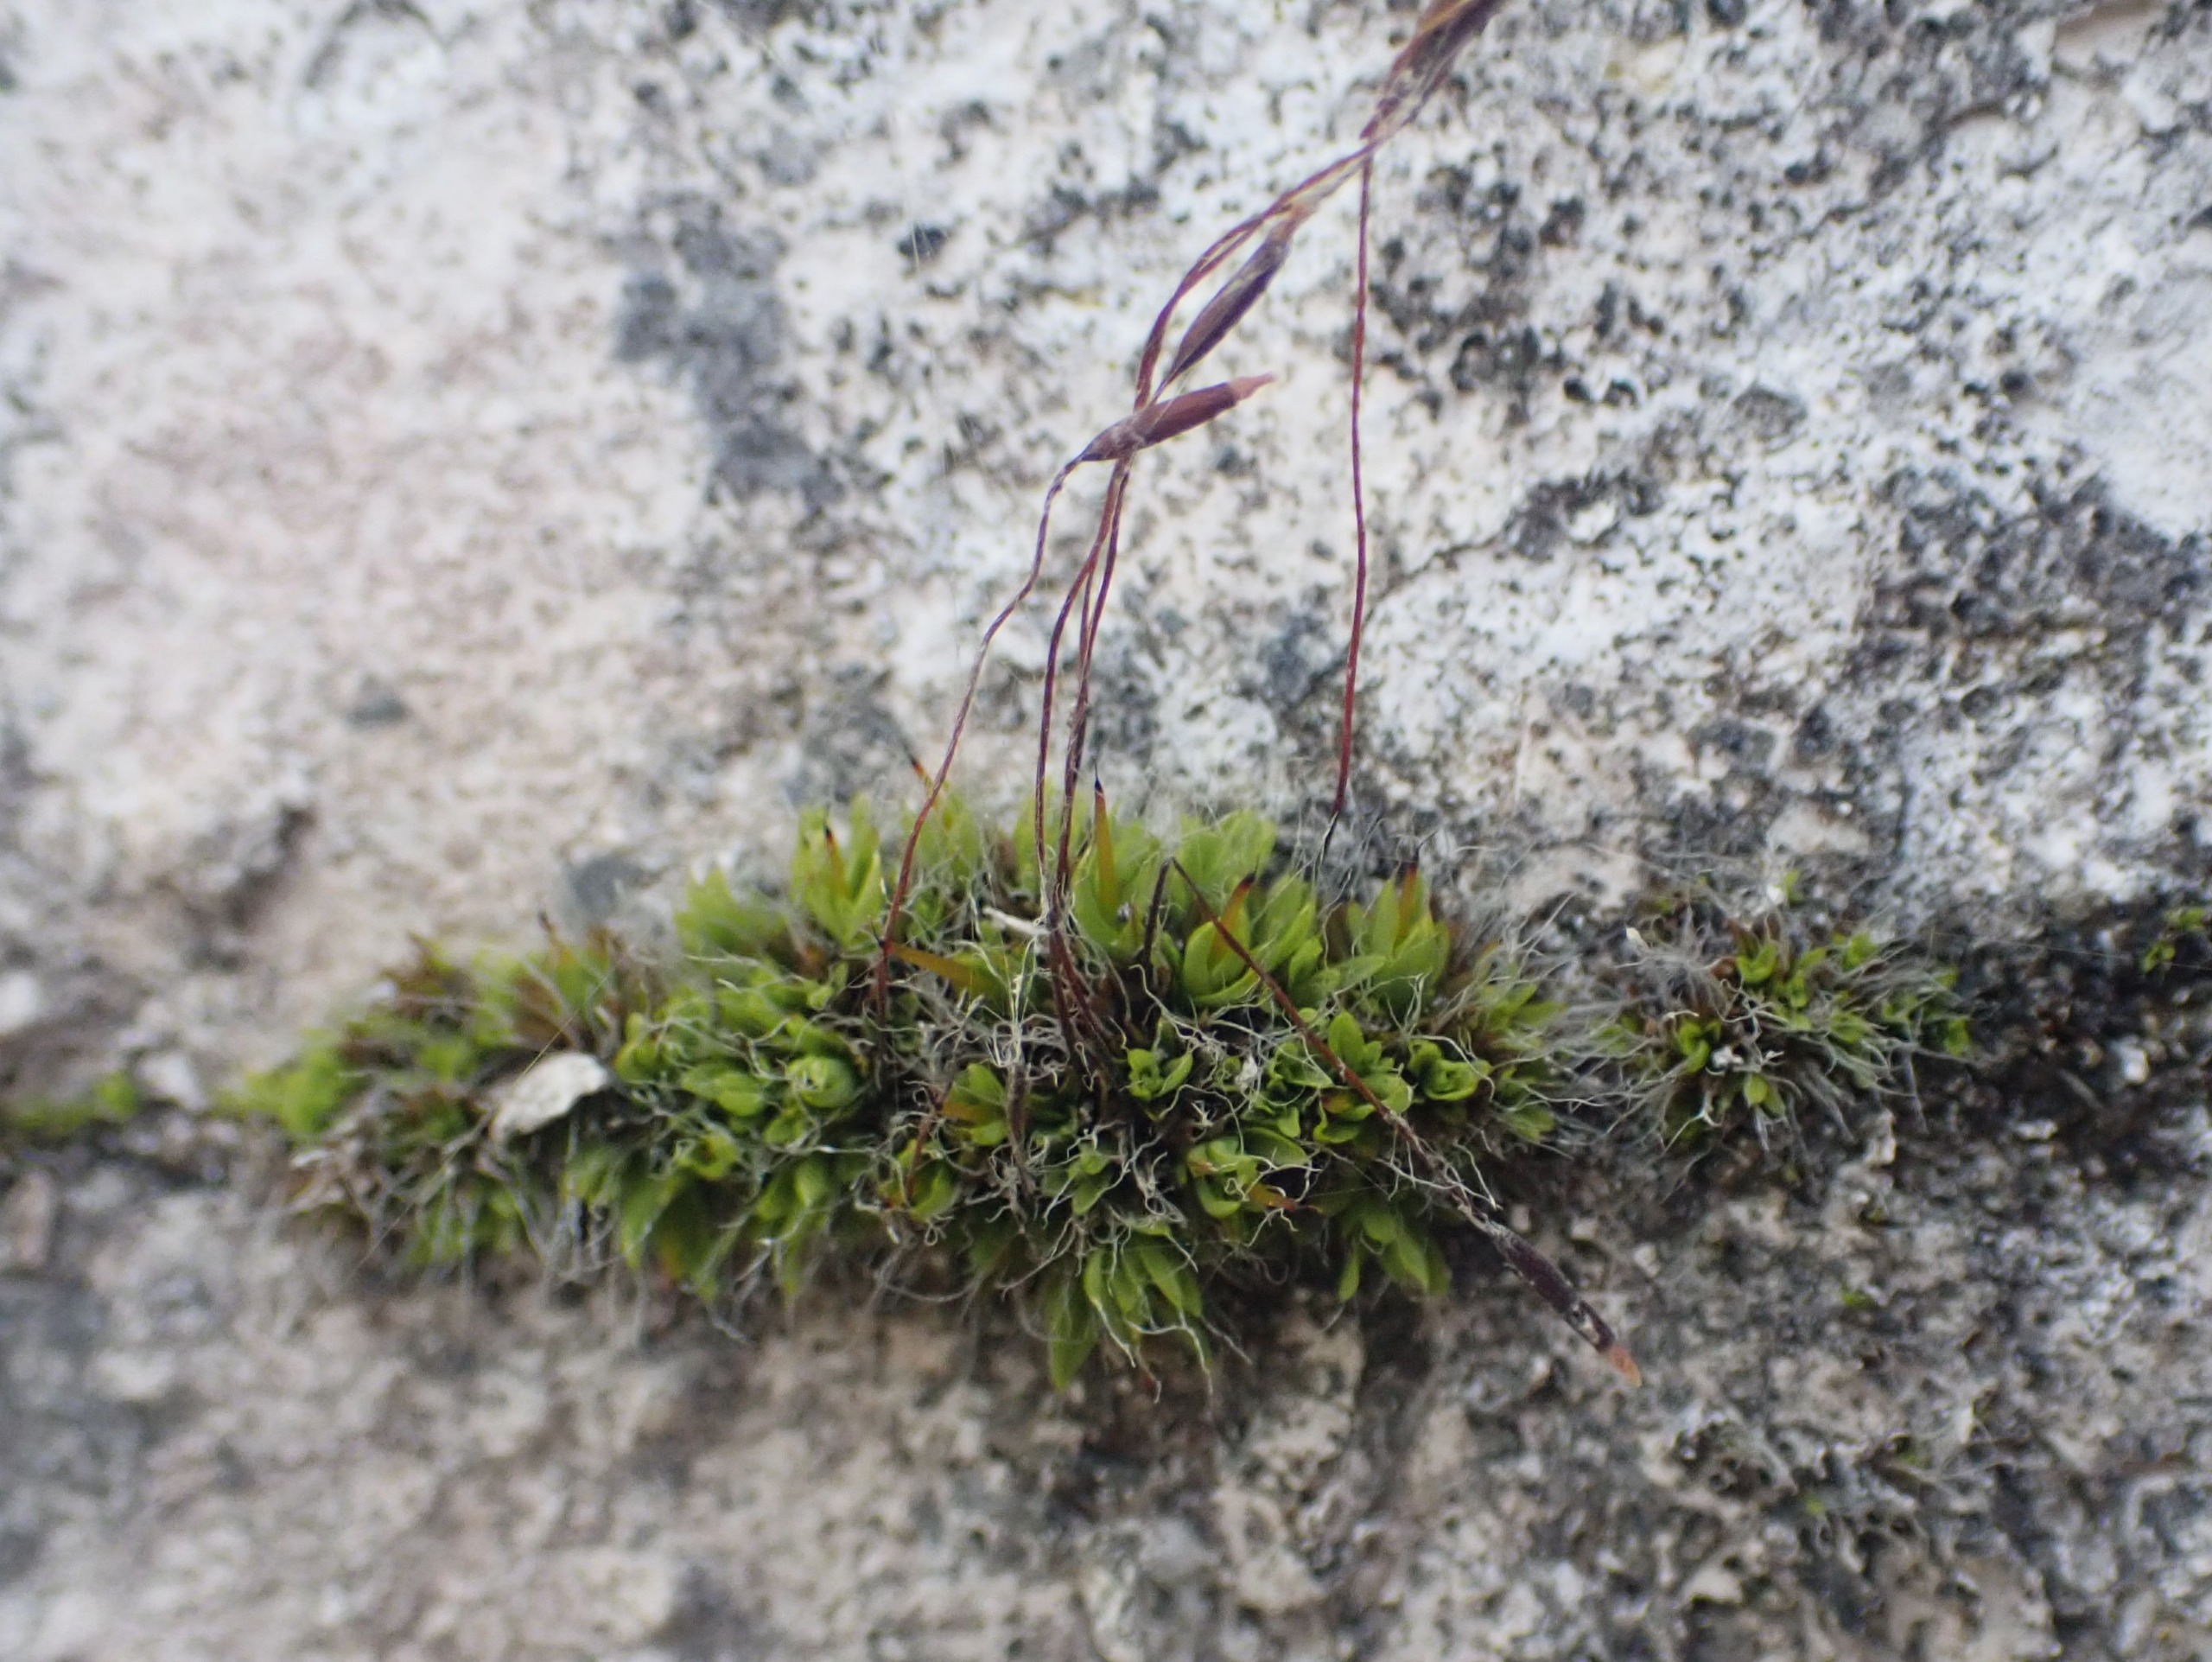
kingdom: Plantae
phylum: Bryophyta
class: Bryopsida
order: Pottiales
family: Pottiaceae
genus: Tortula
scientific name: Tortula muralis
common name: Mur-snotand
